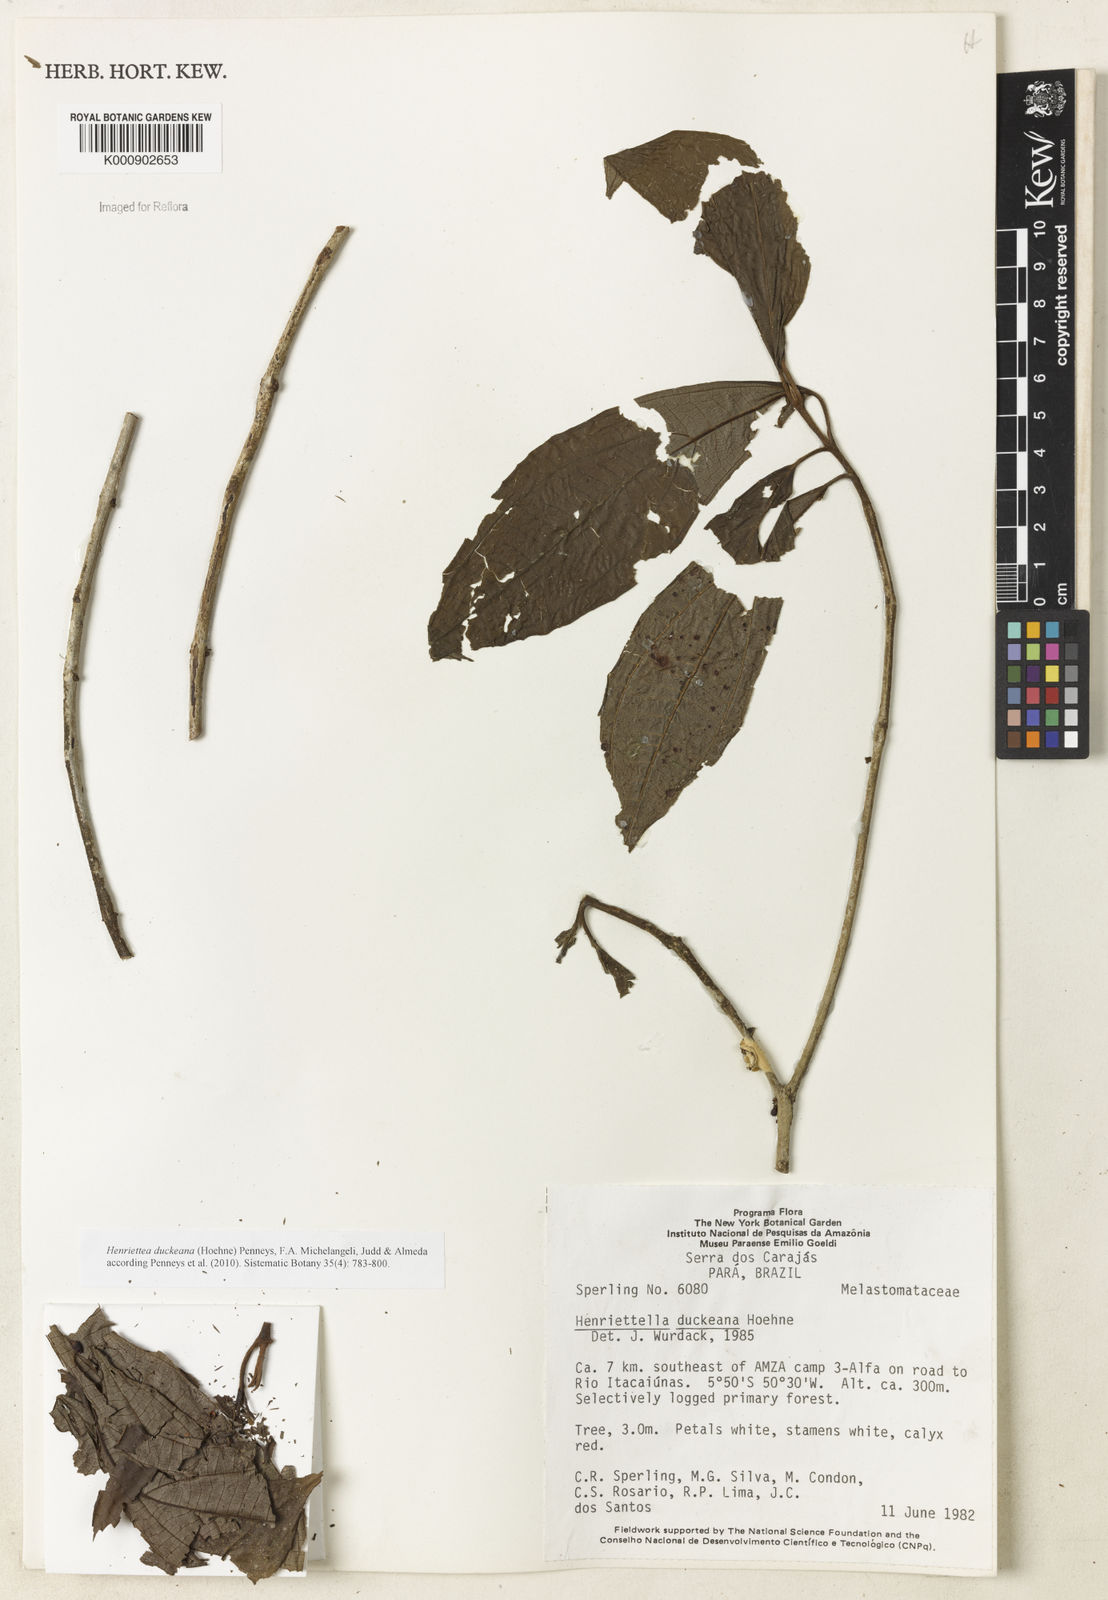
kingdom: Plantae
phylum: Tracheophyta
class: Magnoliopsida
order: Myrtales
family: Melastomataceae
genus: Henriettea
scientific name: Henriettea duckeana
